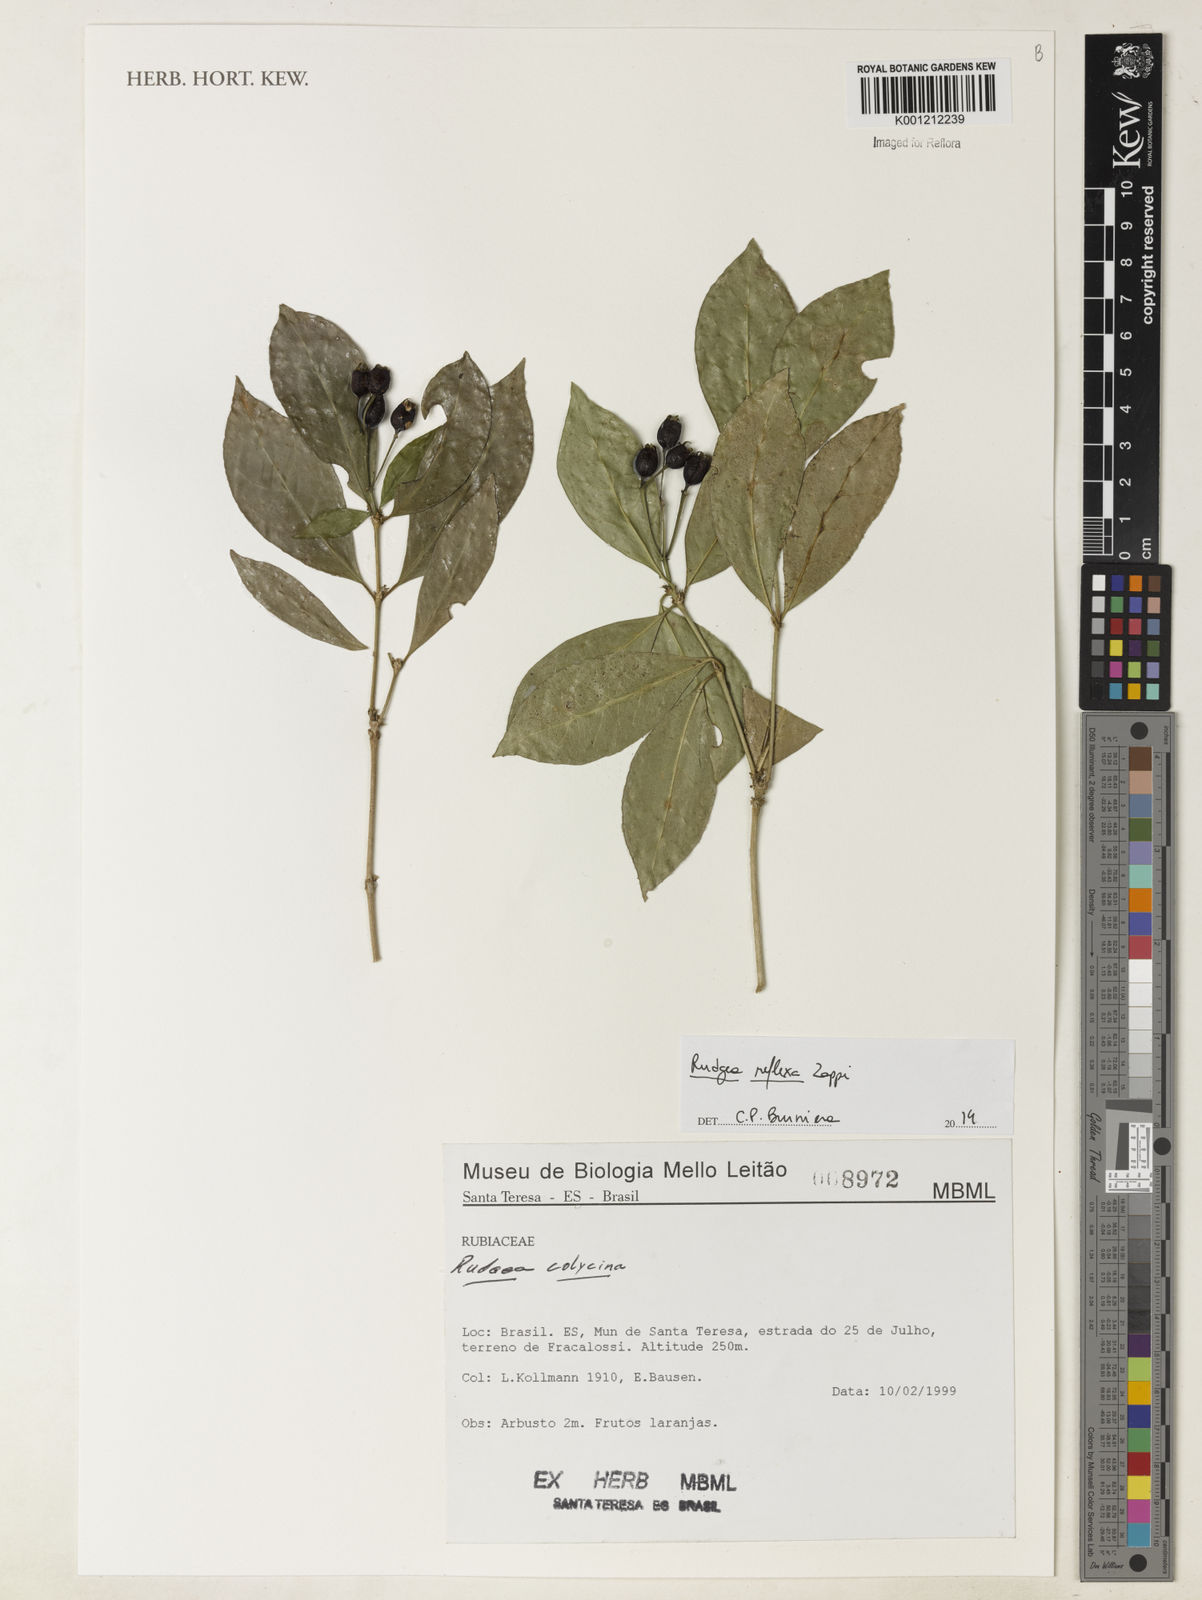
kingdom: Plantae
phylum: Tracheophyta
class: Magnoliopsida
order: Gentianales
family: Rubiaceae
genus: Rudgea
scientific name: Rudgea reflexa
